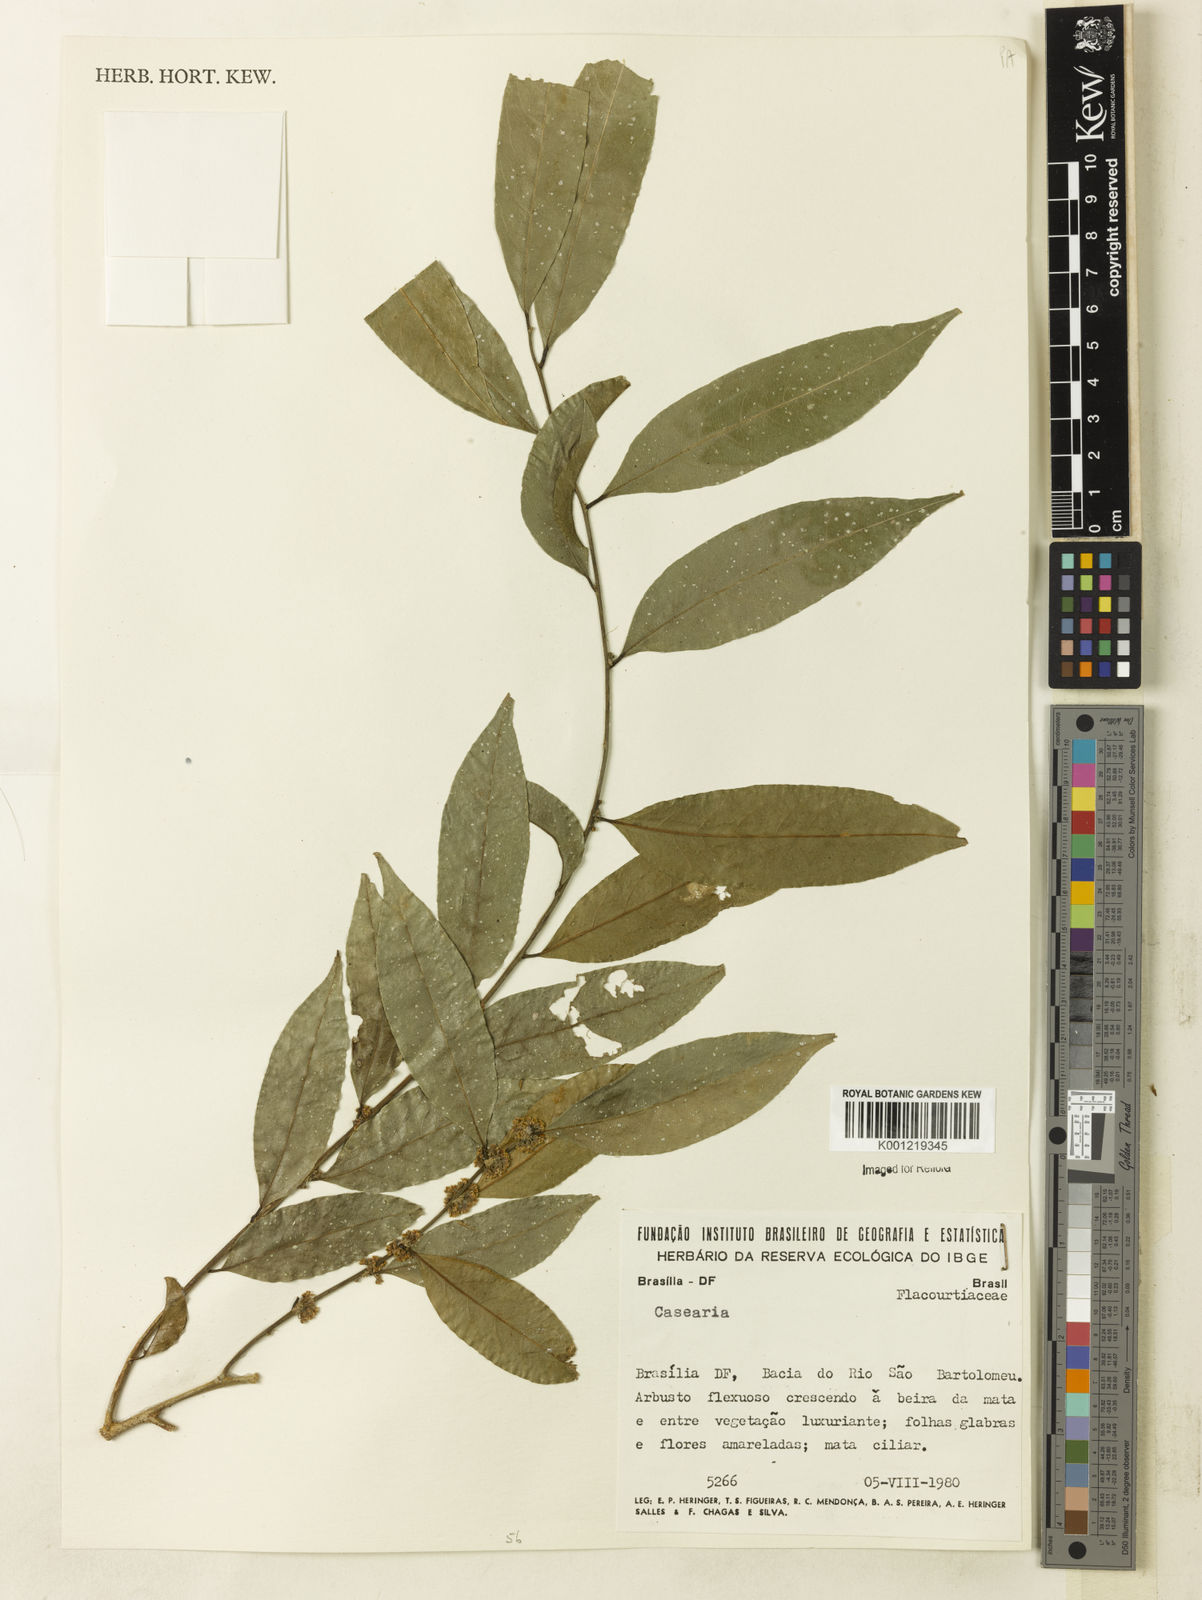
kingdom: Plantae
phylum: Tracheophyta
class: Magnoliopsida
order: Malpighiales
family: Salicaceae
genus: Casearia
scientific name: Casearia
